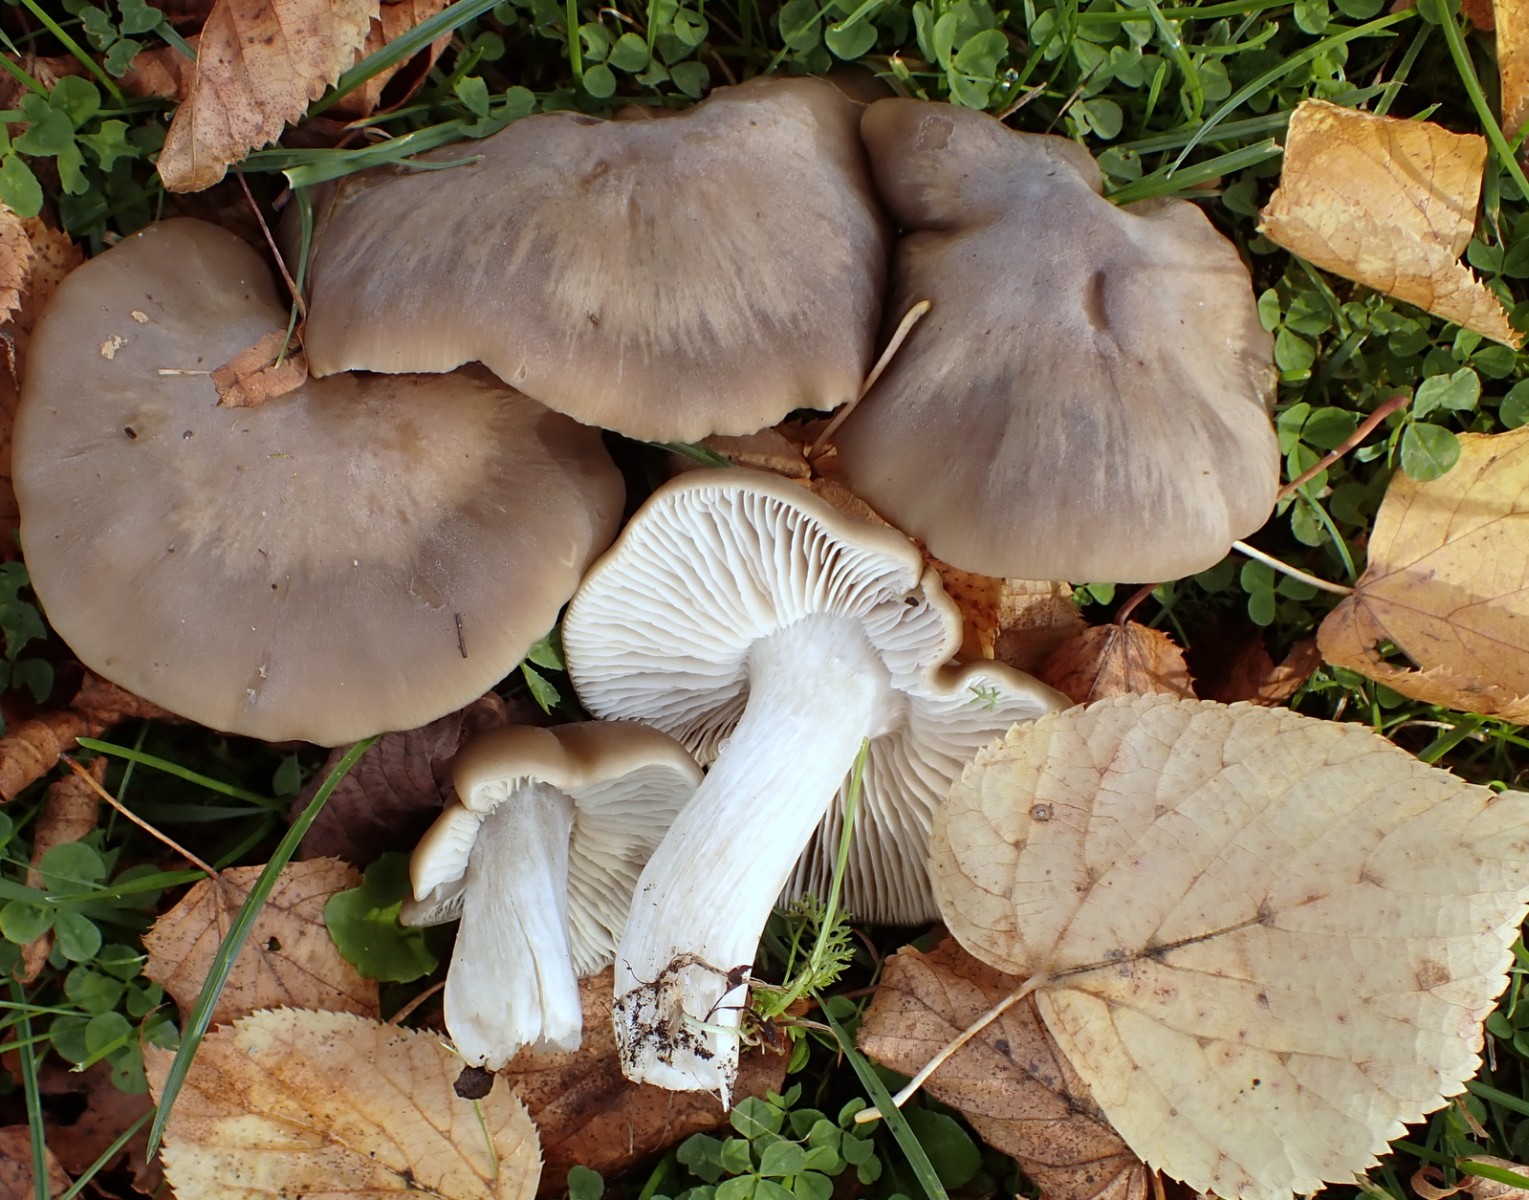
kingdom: Fungi
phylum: Basidiomycota
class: Agaricomycetes
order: Agaricales
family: Entolomataceae
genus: Entoloma
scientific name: Entoloma lividoalbum
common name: lysstokket rødblad
